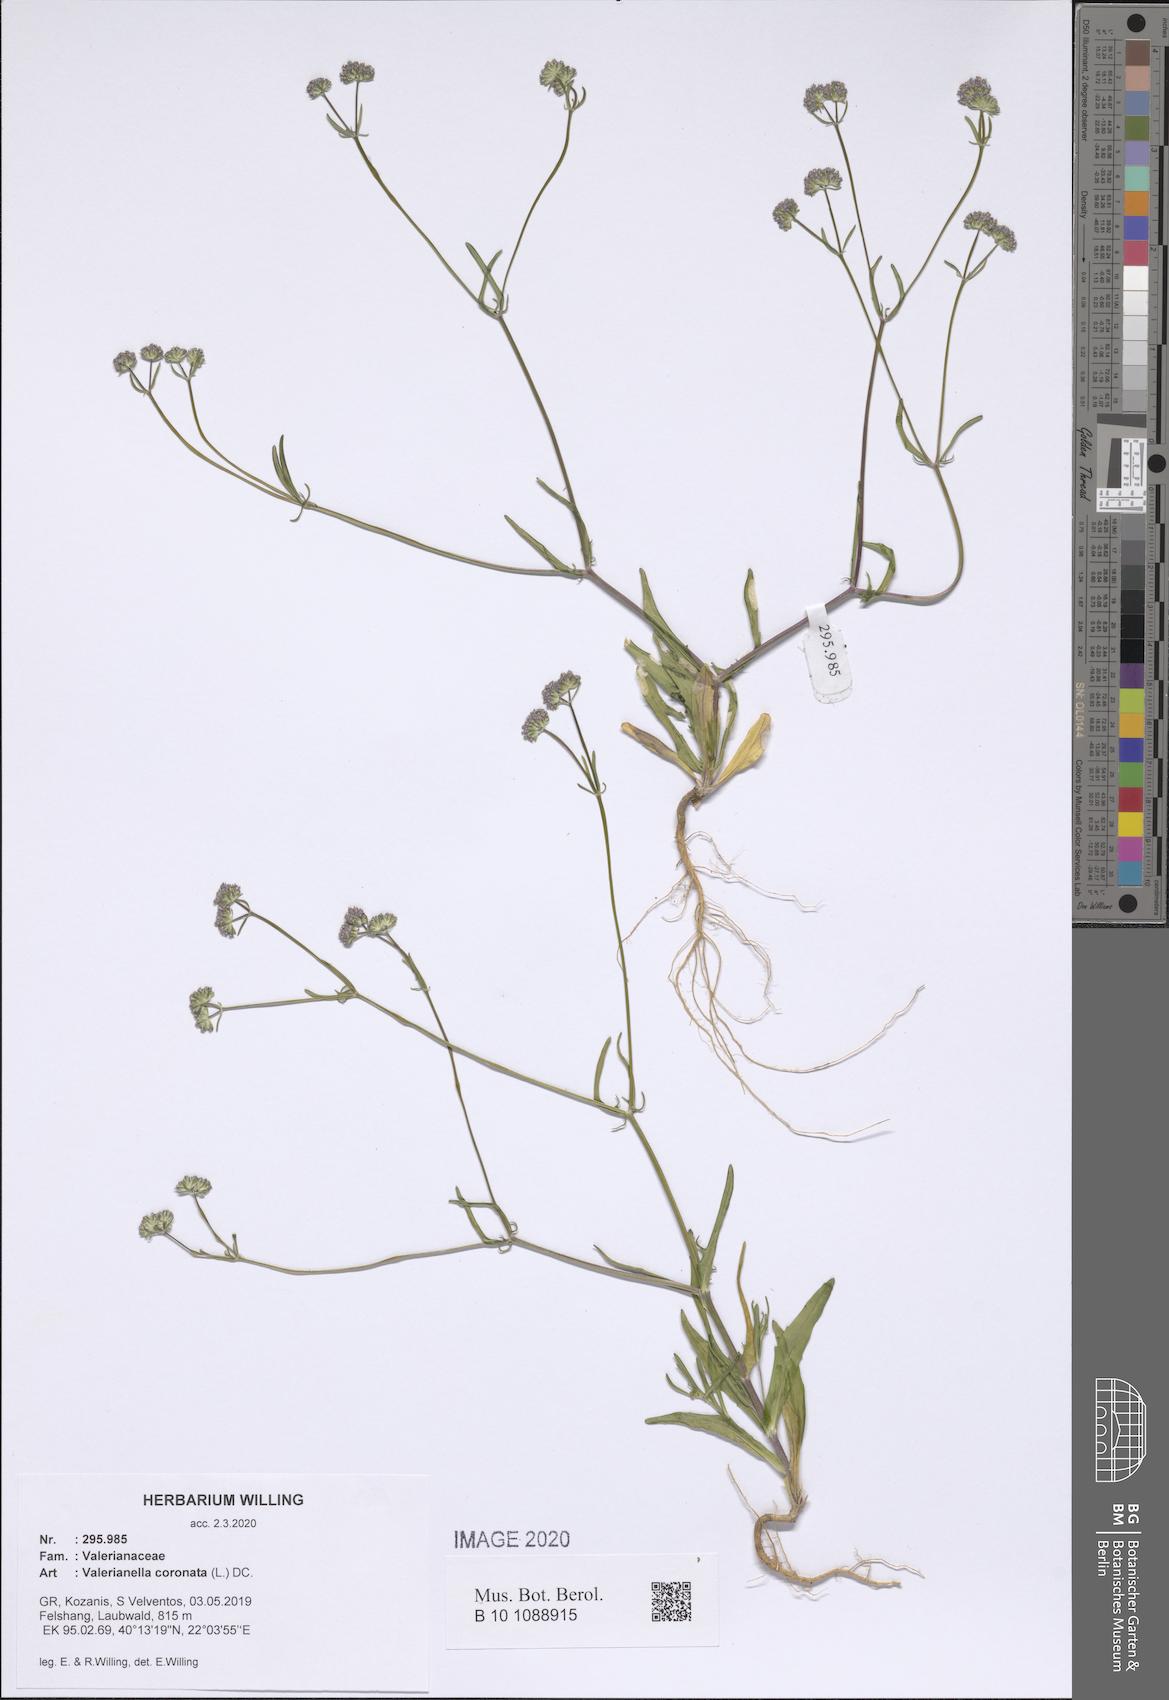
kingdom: Plantae
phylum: Tracheophyta
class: Magnoliopsida
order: Dipsacales
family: Caprifoliaceae
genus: Valerianella
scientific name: Valerianella coronata
